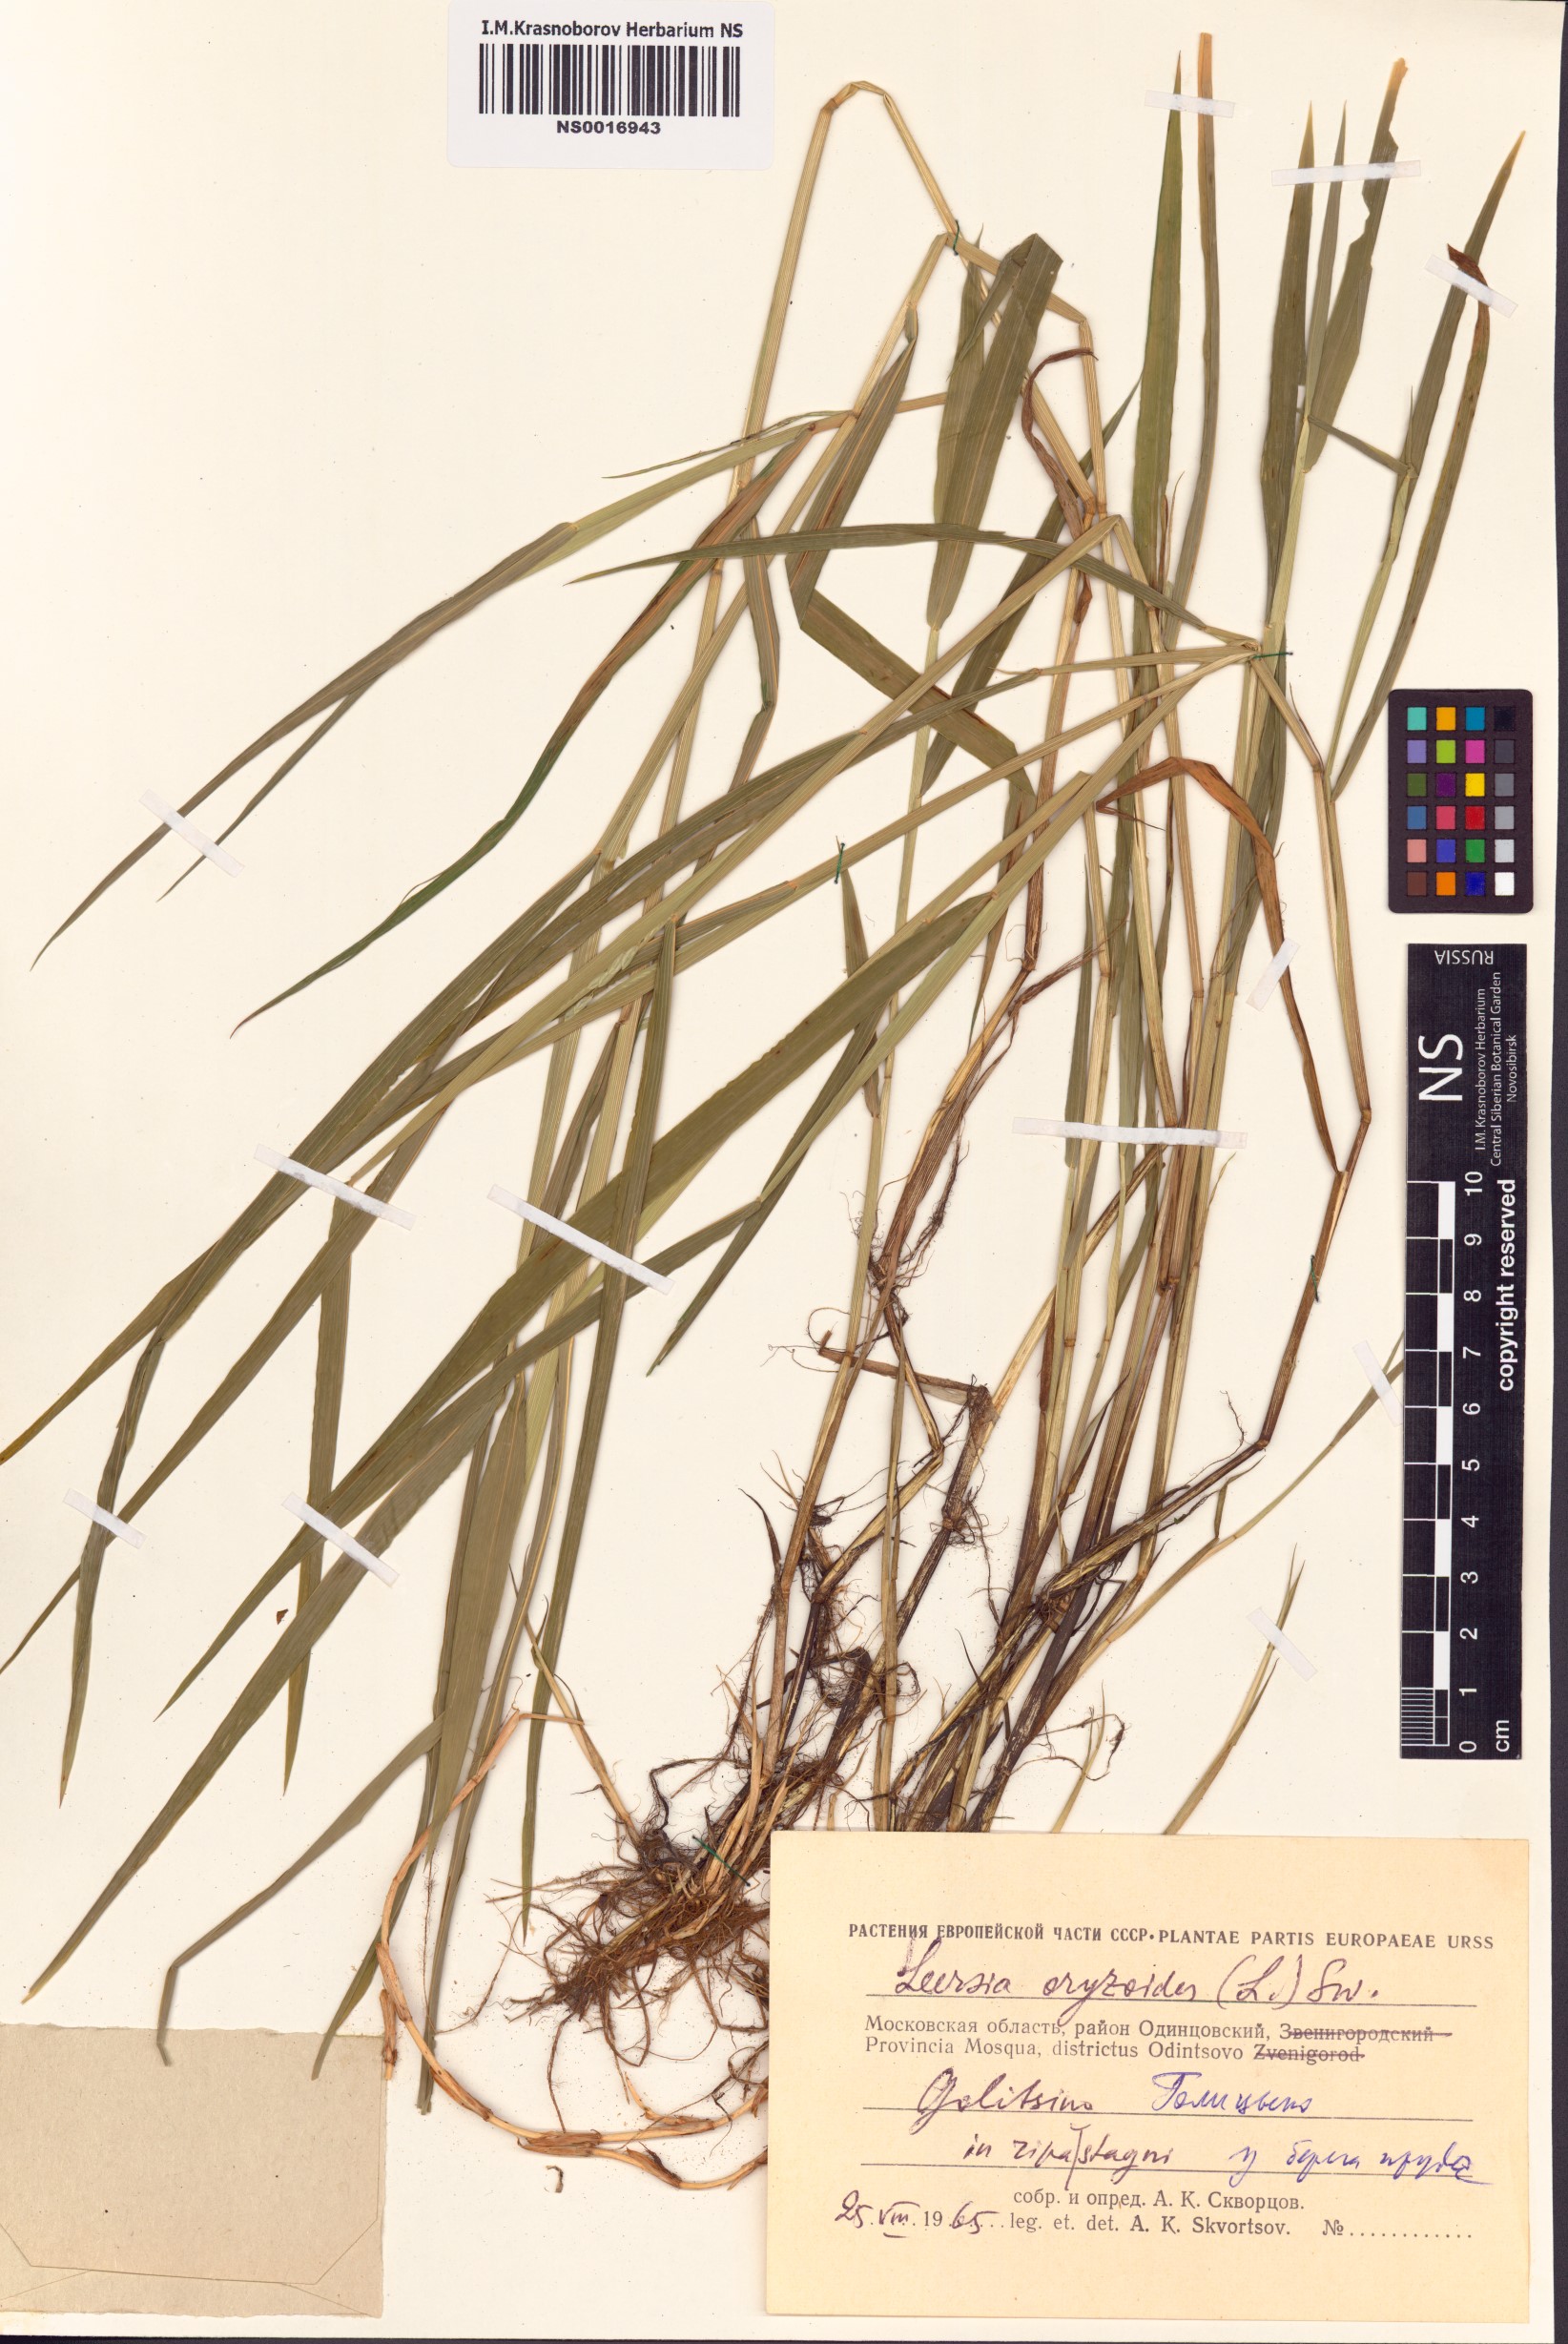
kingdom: Plantae
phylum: Tracheophyta
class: Liliopsida
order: Poales
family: Poaceae
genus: Leersia
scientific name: Leersia oryzoides
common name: Cut-grass
